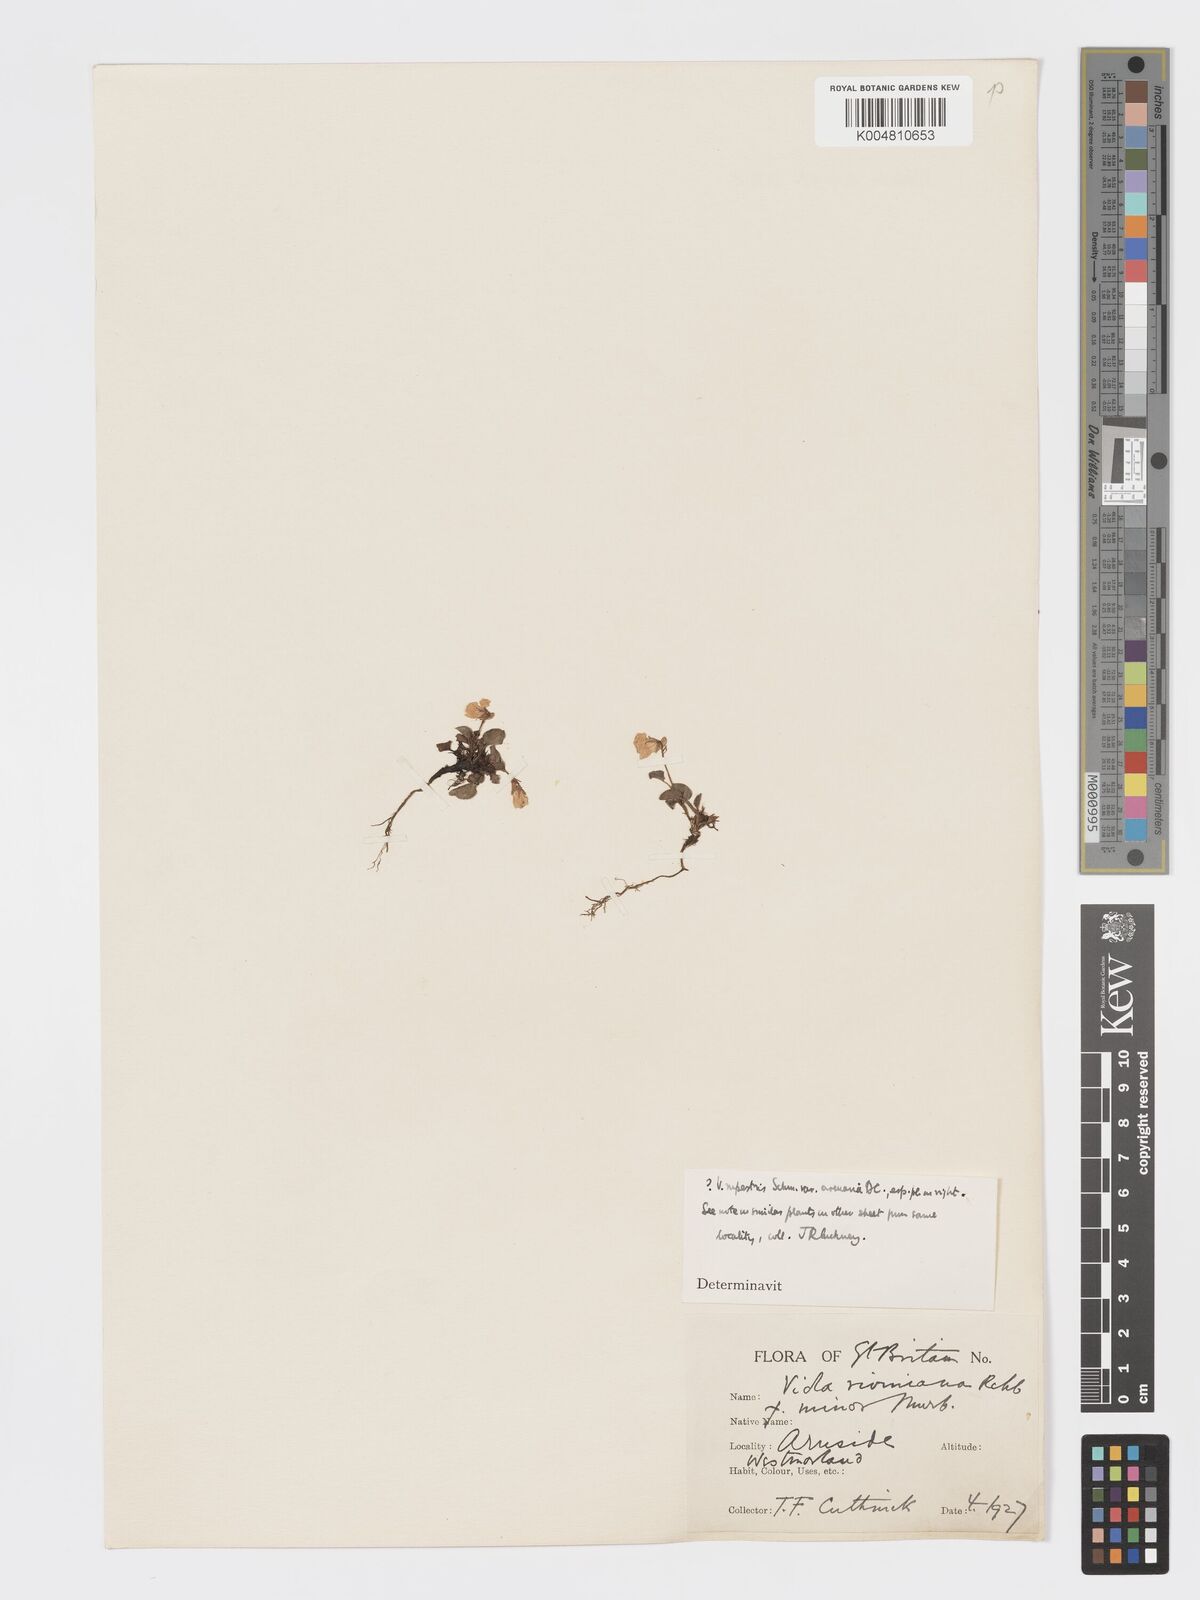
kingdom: Plantae
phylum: Tracheophyta
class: Magnoliopsida
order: Malpighiales
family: Violaceae
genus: Viola
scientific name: Viola rupestris
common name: Teesdale violet
